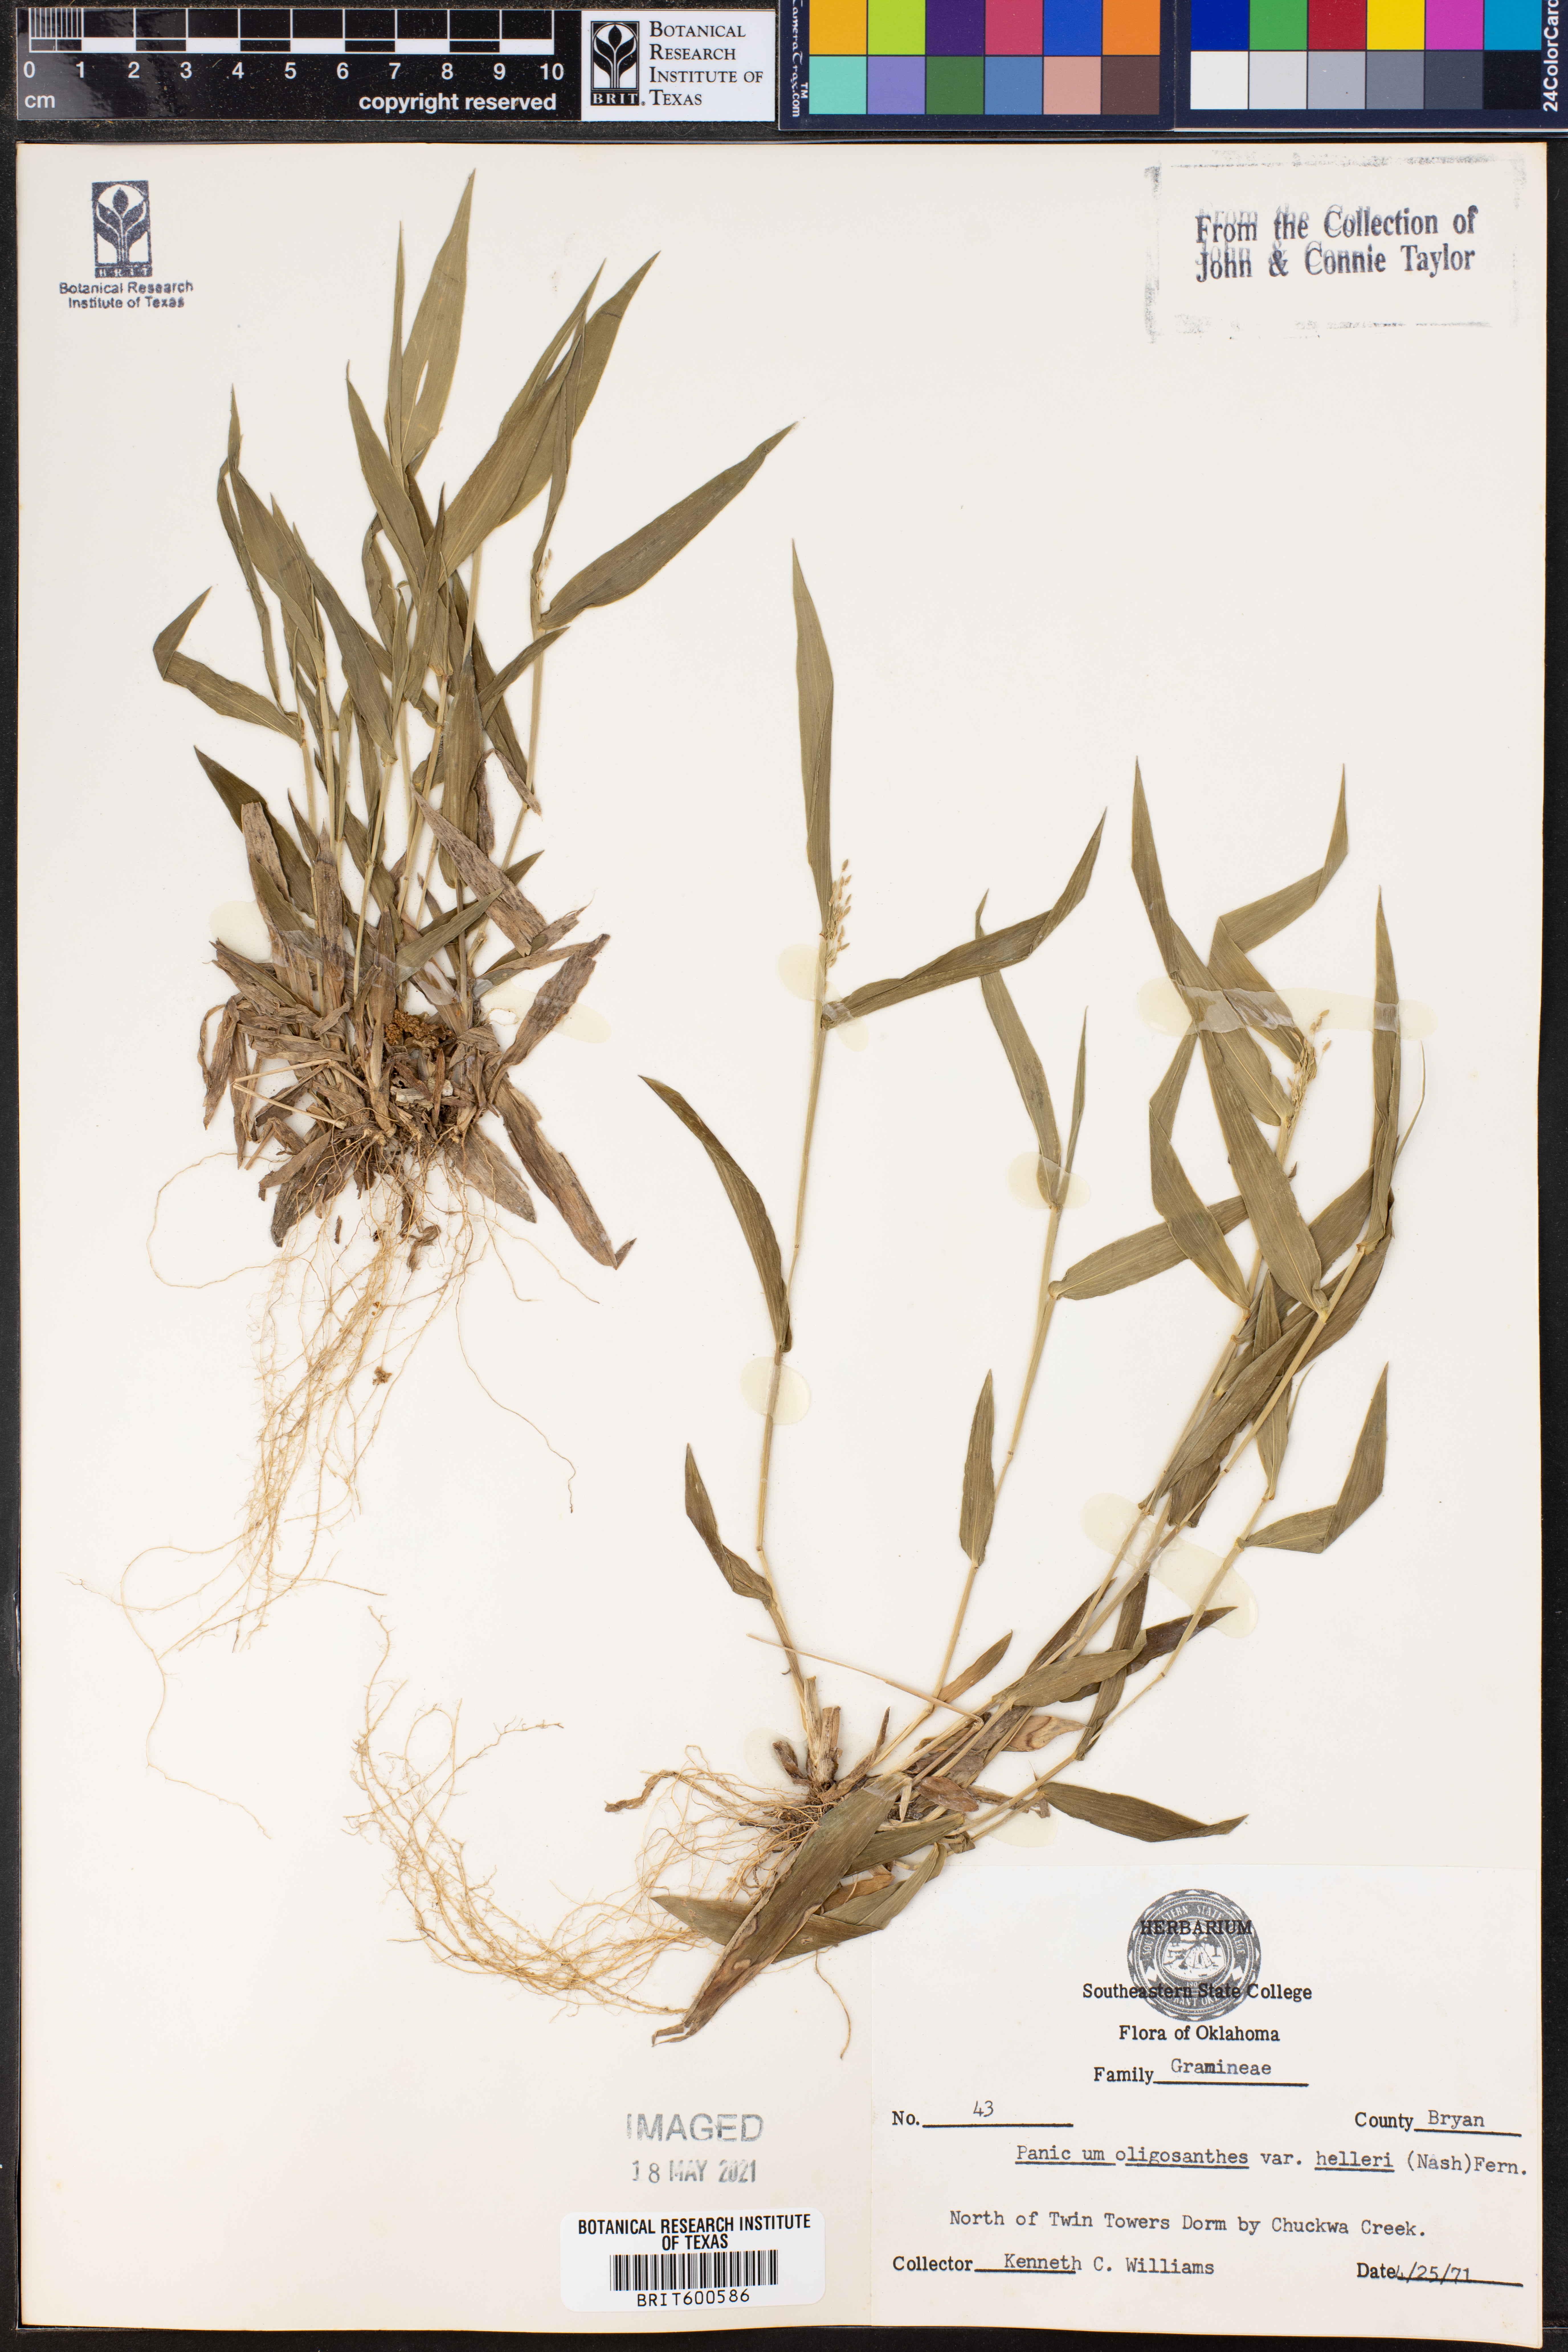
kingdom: Plantae
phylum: Tracheophyta
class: Liliopsida
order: Poales
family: Poaceae
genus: Dichanthelium
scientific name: Dichanthelium oligosanthes
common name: Few-anther obscuregrass
